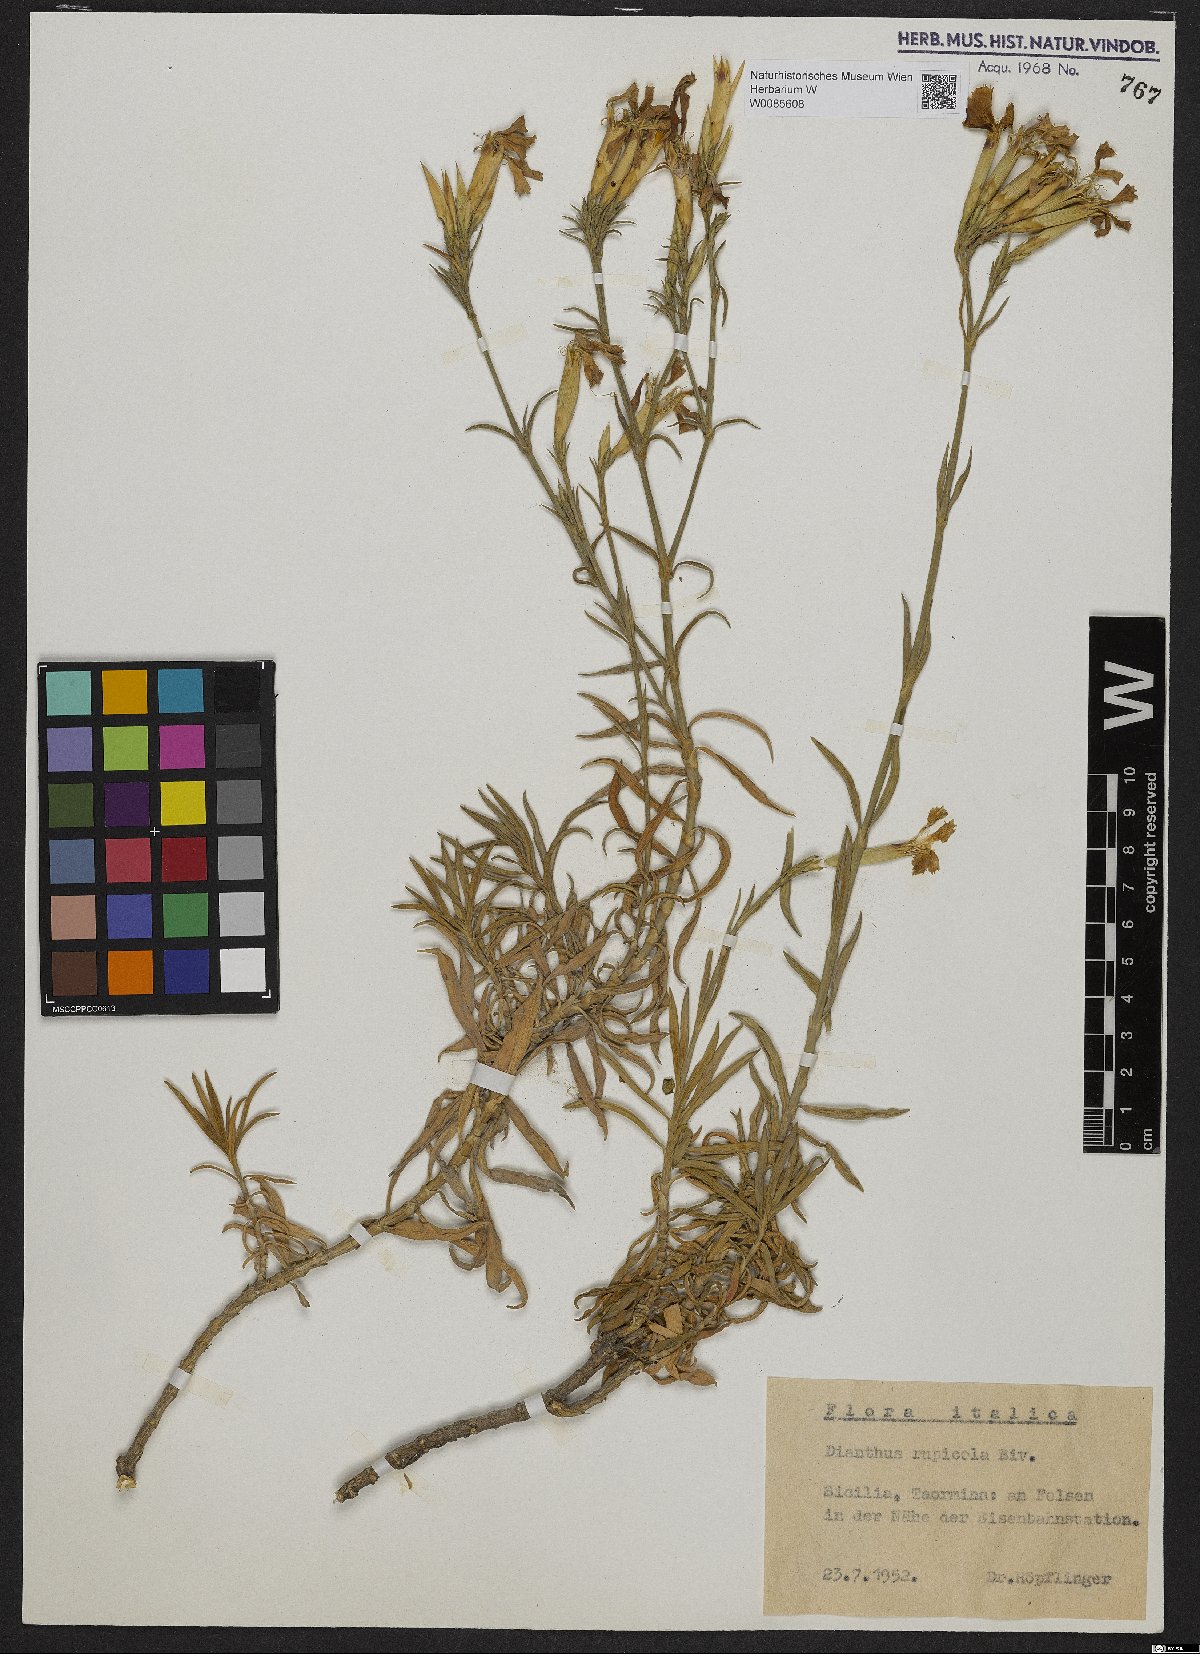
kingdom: Plantae
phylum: Tracheophyta
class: Magnoliopsida
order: Caryophyllales
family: Caryophyllaceae
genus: Dianthus
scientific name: Dianthus rupicola
